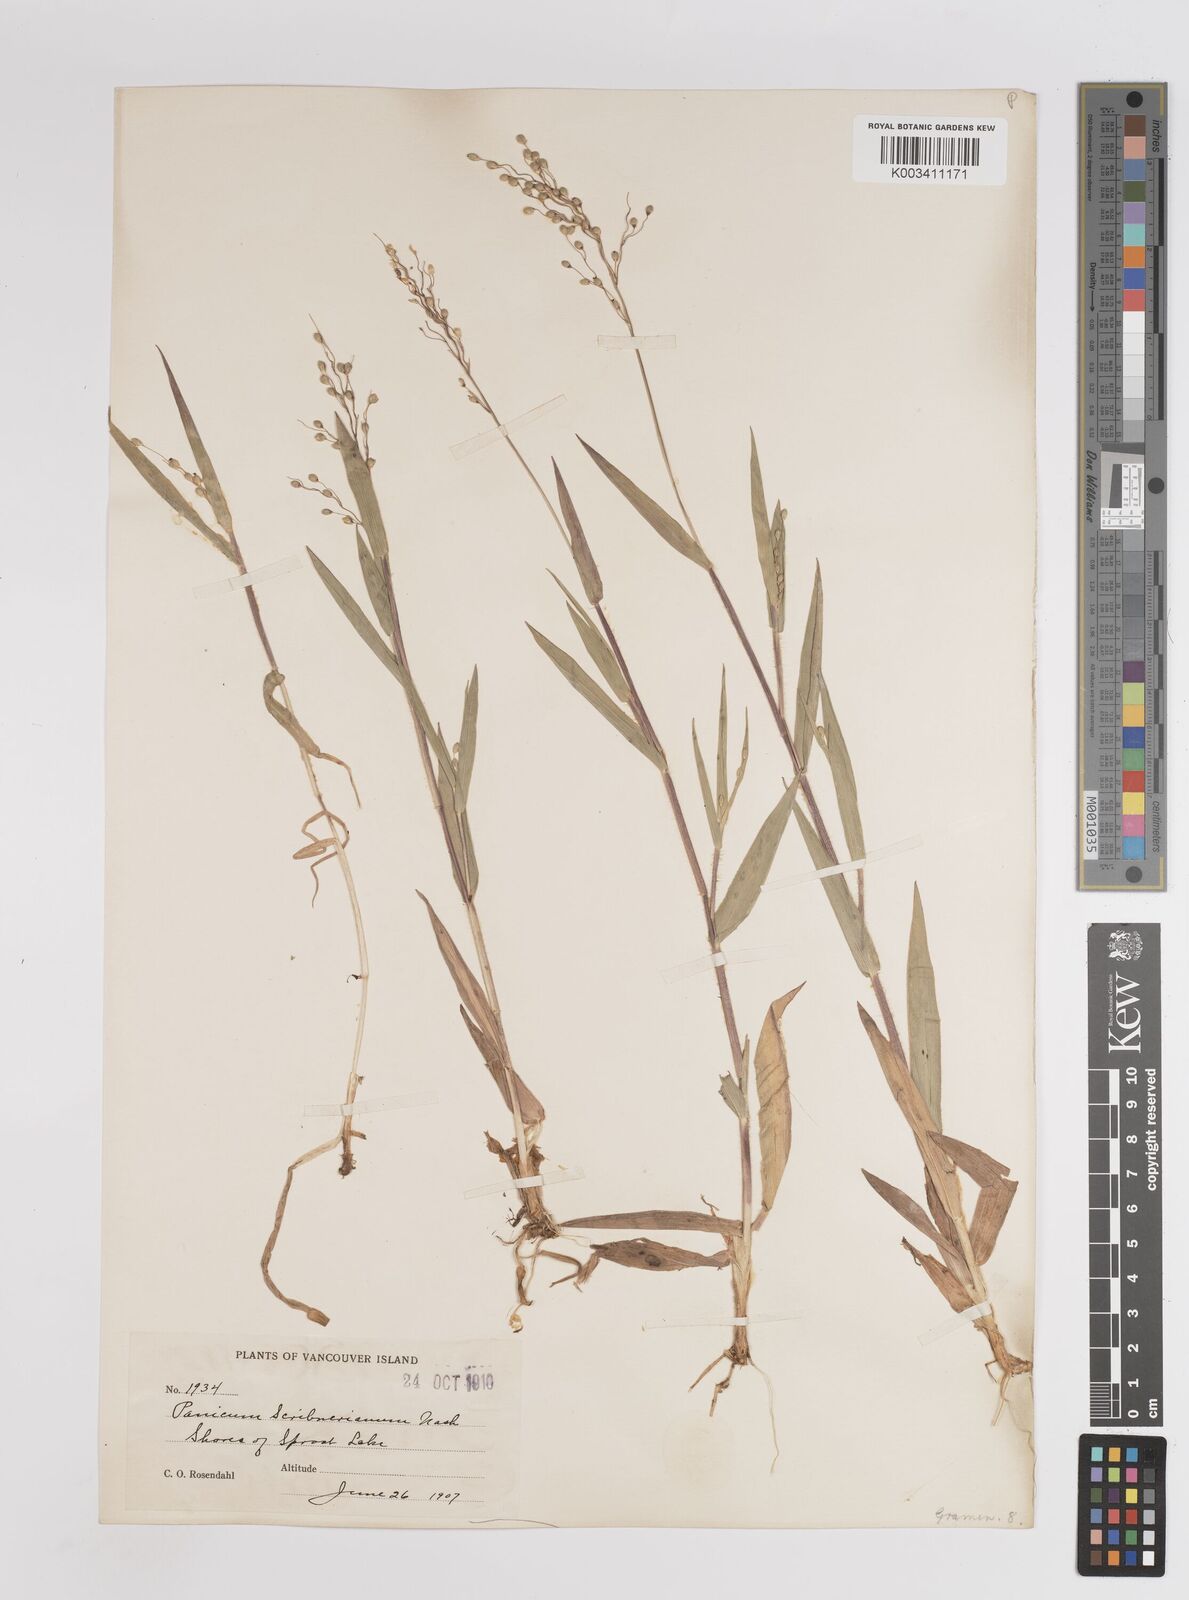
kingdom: Plantae
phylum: Tracheophyta
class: Liliopsida
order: Poales
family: Poaceae
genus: Dichanthelium
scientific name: Dichanthelium scribnerianum
